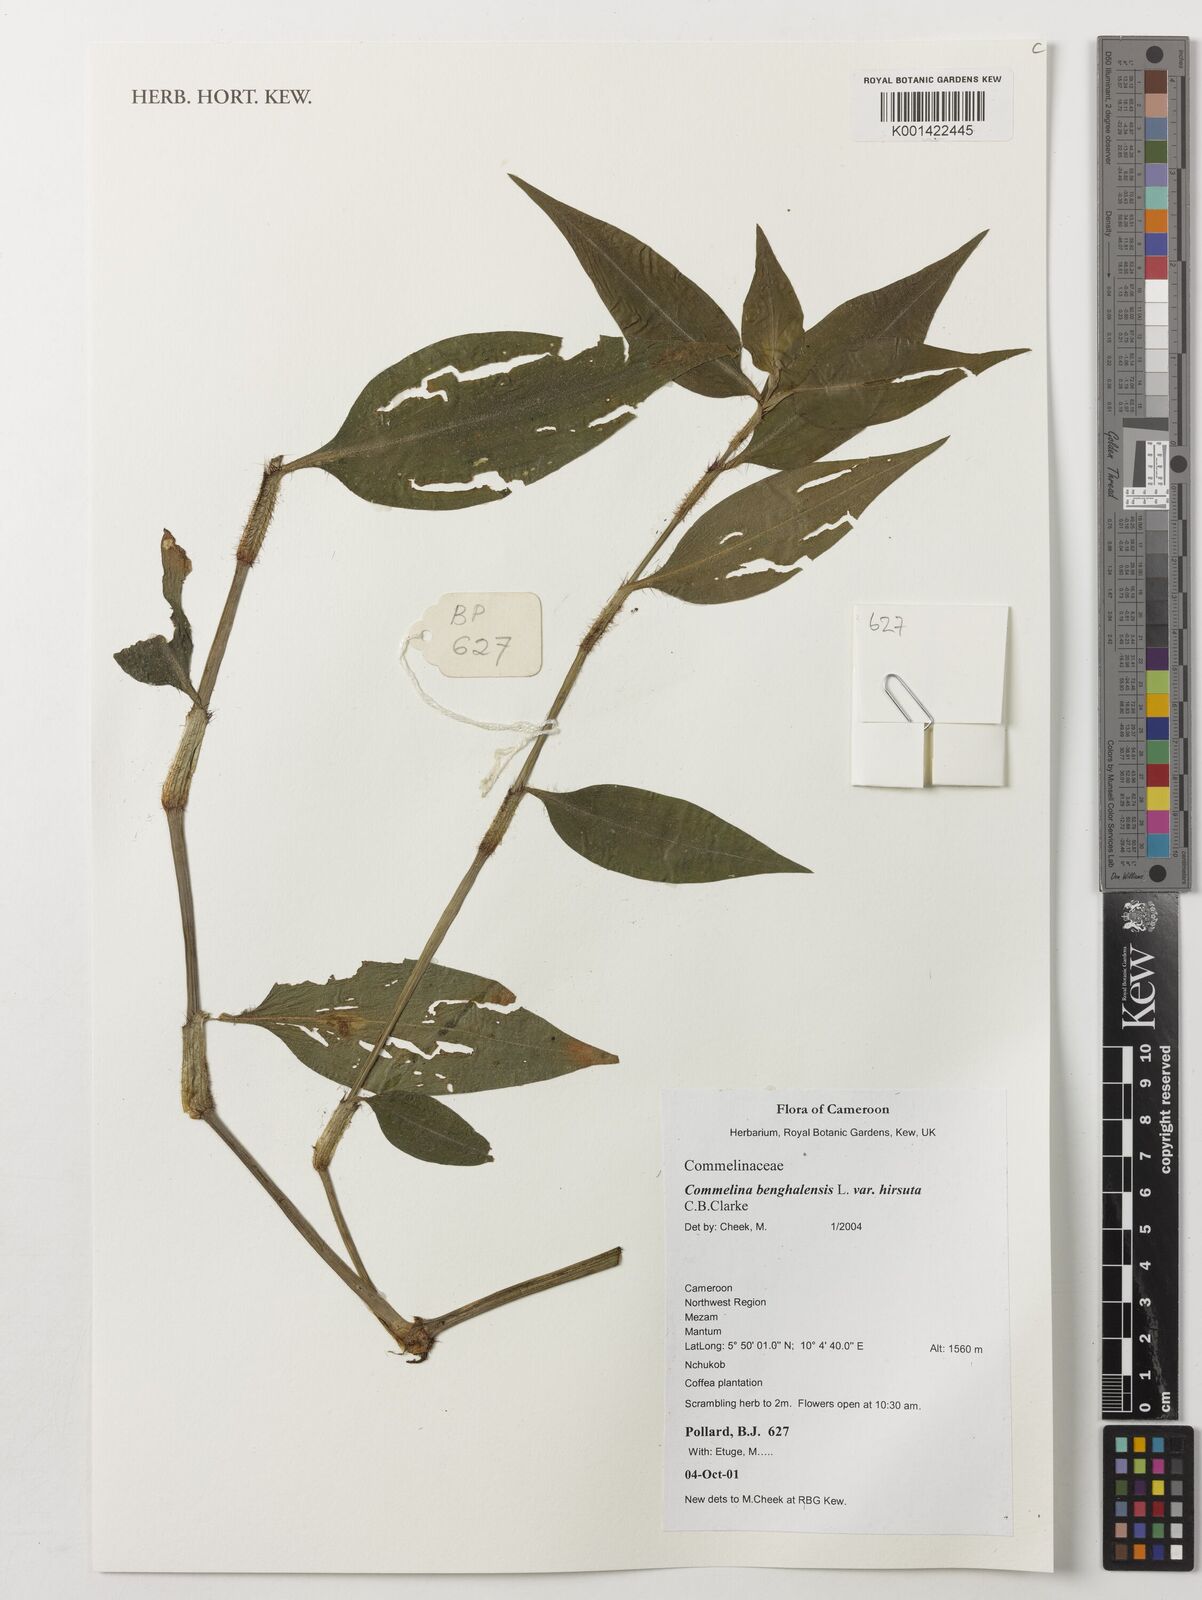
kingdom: Plantae
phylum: Tracheophyta
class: Liliopsida
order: Commelinales
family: Commelinaceae
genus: Commelina
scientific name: Commelina benghalensis
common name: Jio
